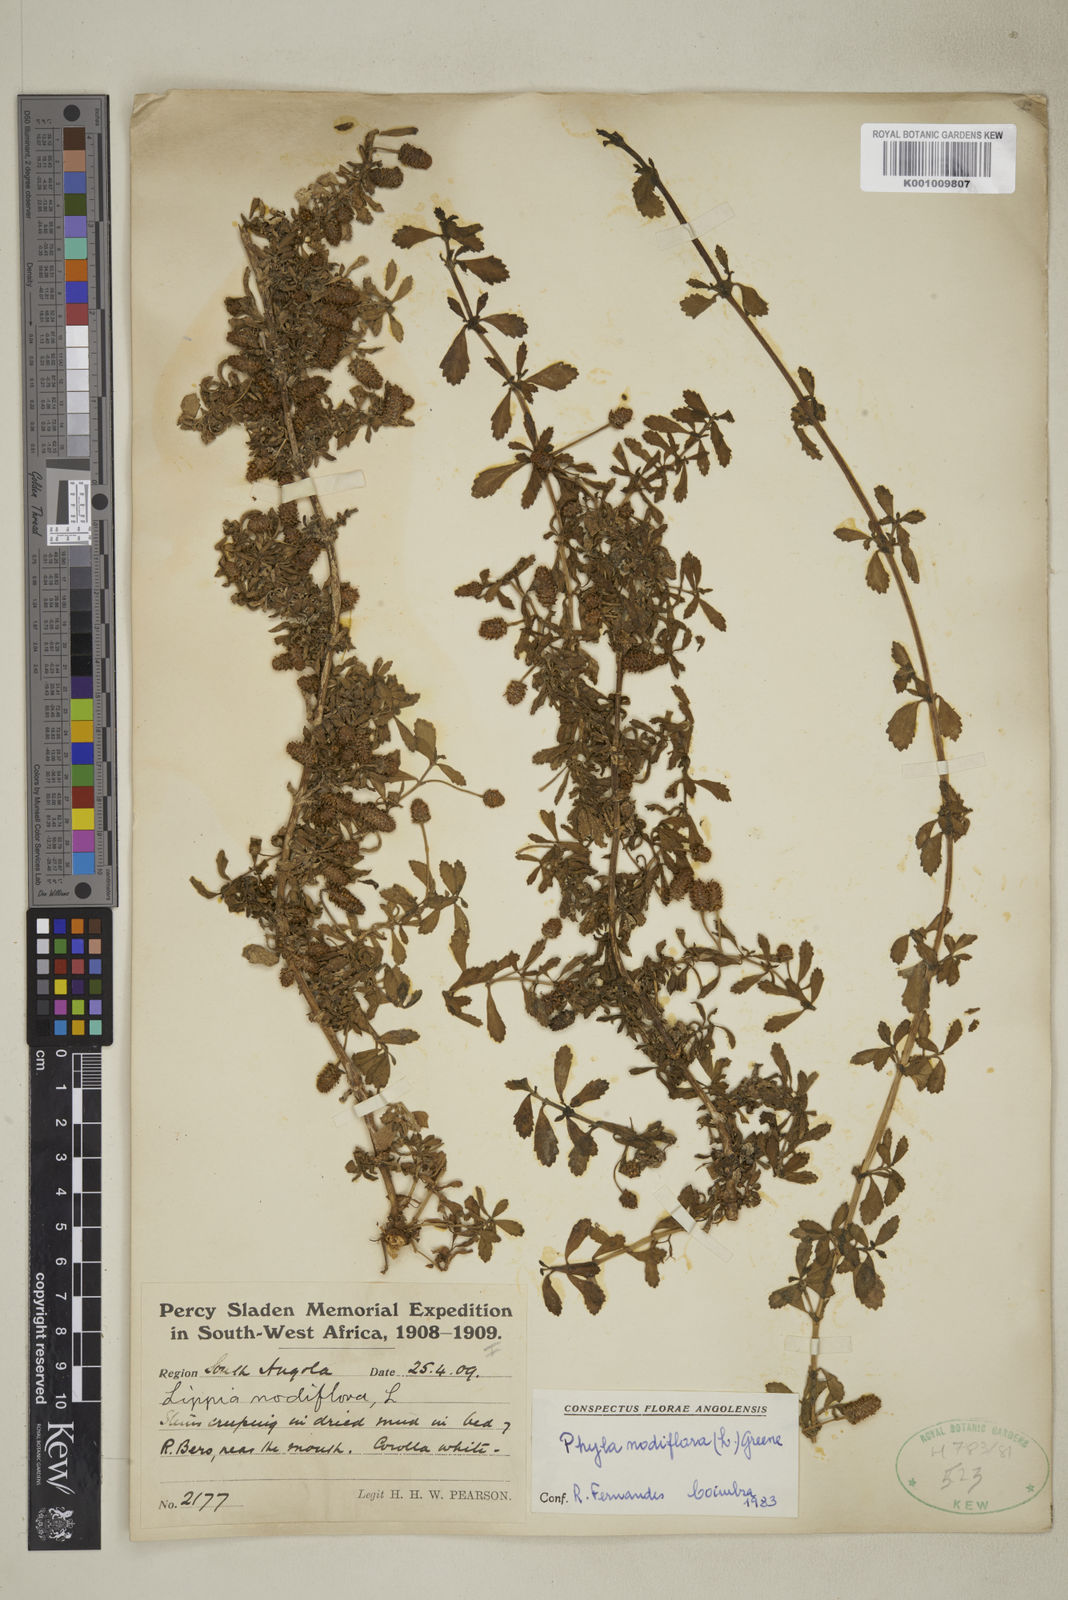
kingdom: Plantae
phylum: Tracheophyta
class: Magnoliopsida
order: Lamiales
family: Verbenaceae
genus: Phyla
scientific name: Phyla nodiflora
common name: Frogfruit
